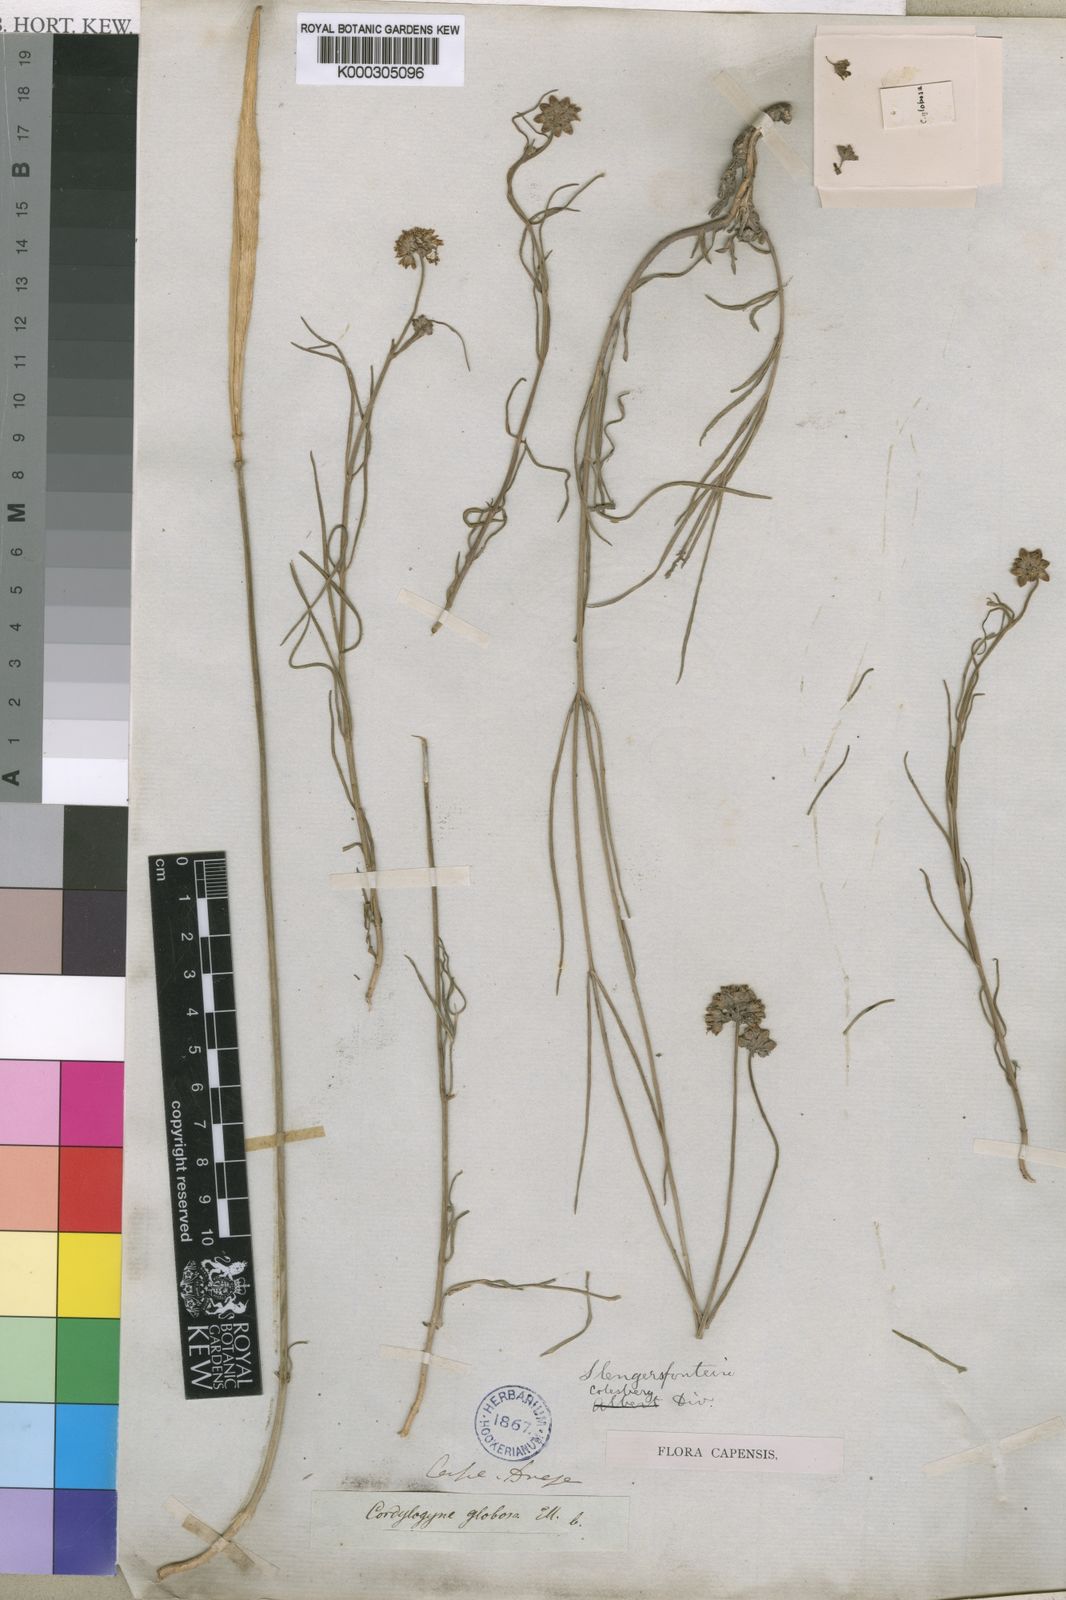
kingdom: Plantae
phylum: Tracheophyta
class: Magnoliopsida
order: Gentianales
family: Apocynaceae
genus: Cordylogyne
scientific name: Cordylogyne globosa
